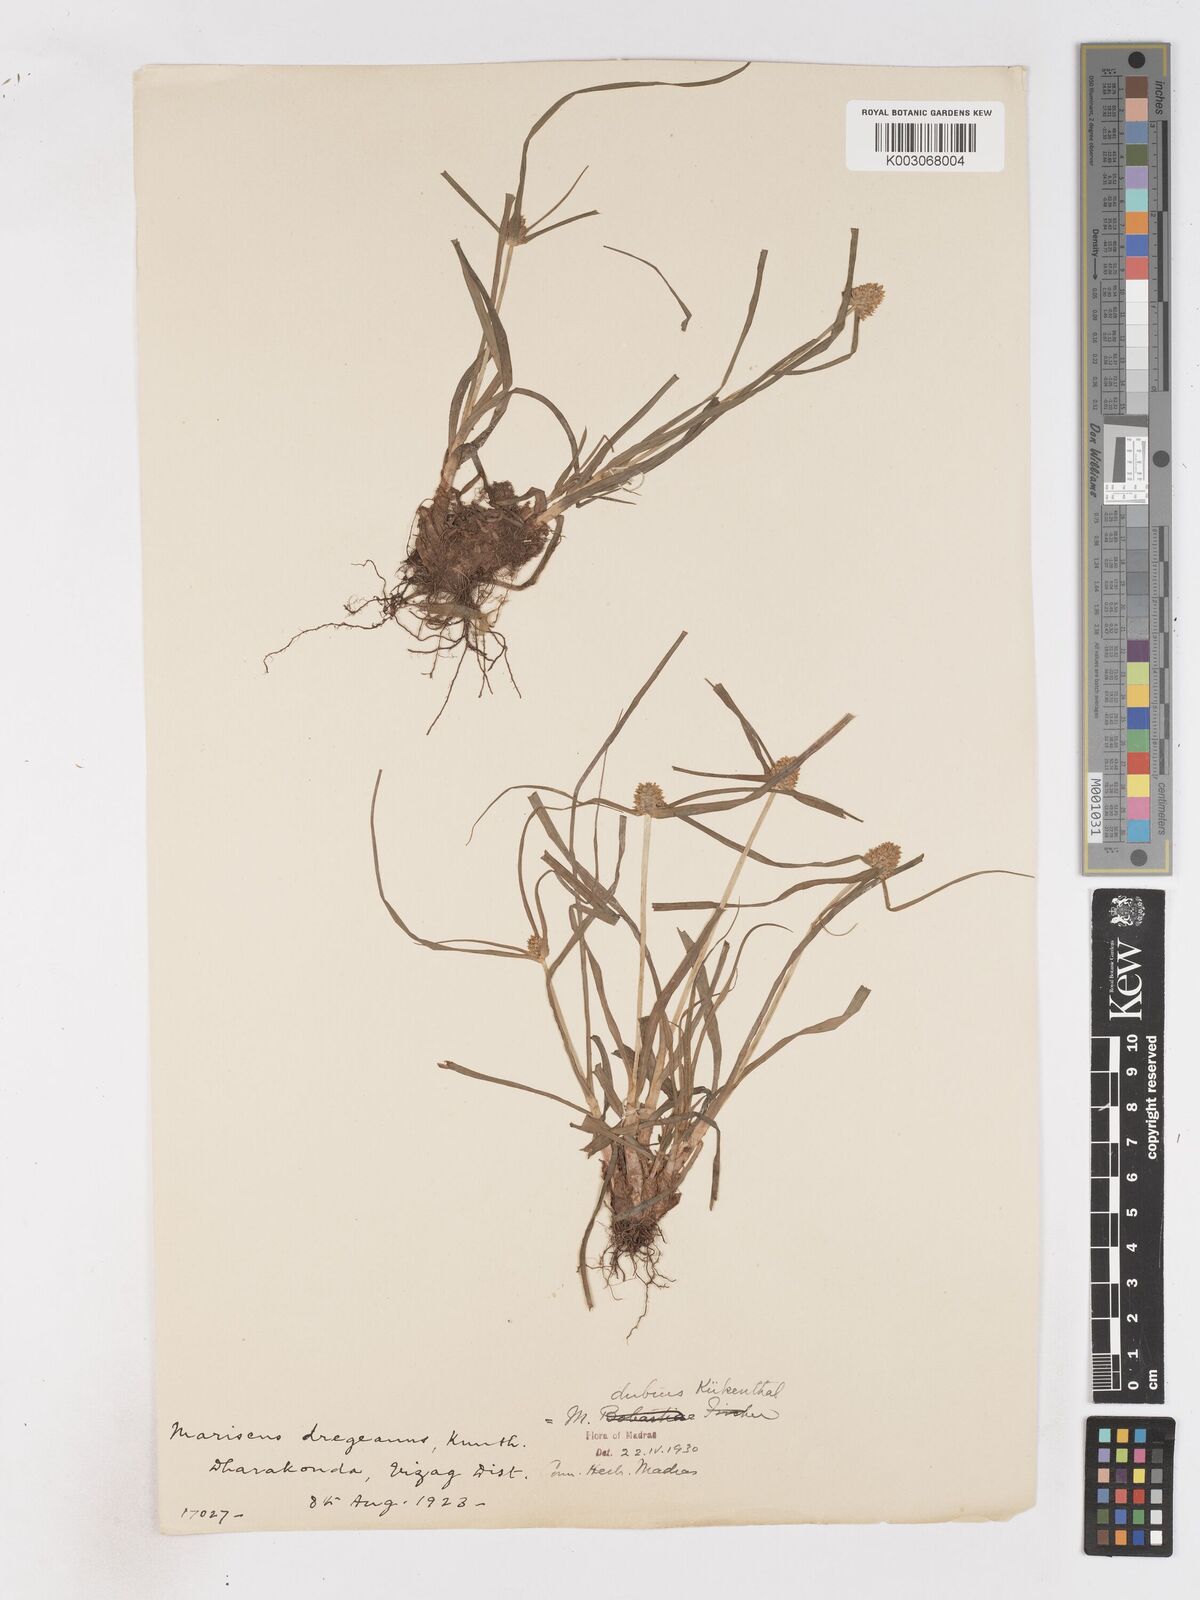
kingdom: Plantae
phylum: Tracheophyta
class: Liliopsida
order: Poales
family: Cyperaceae
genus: Cyperus
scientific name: Cyperus dubius
